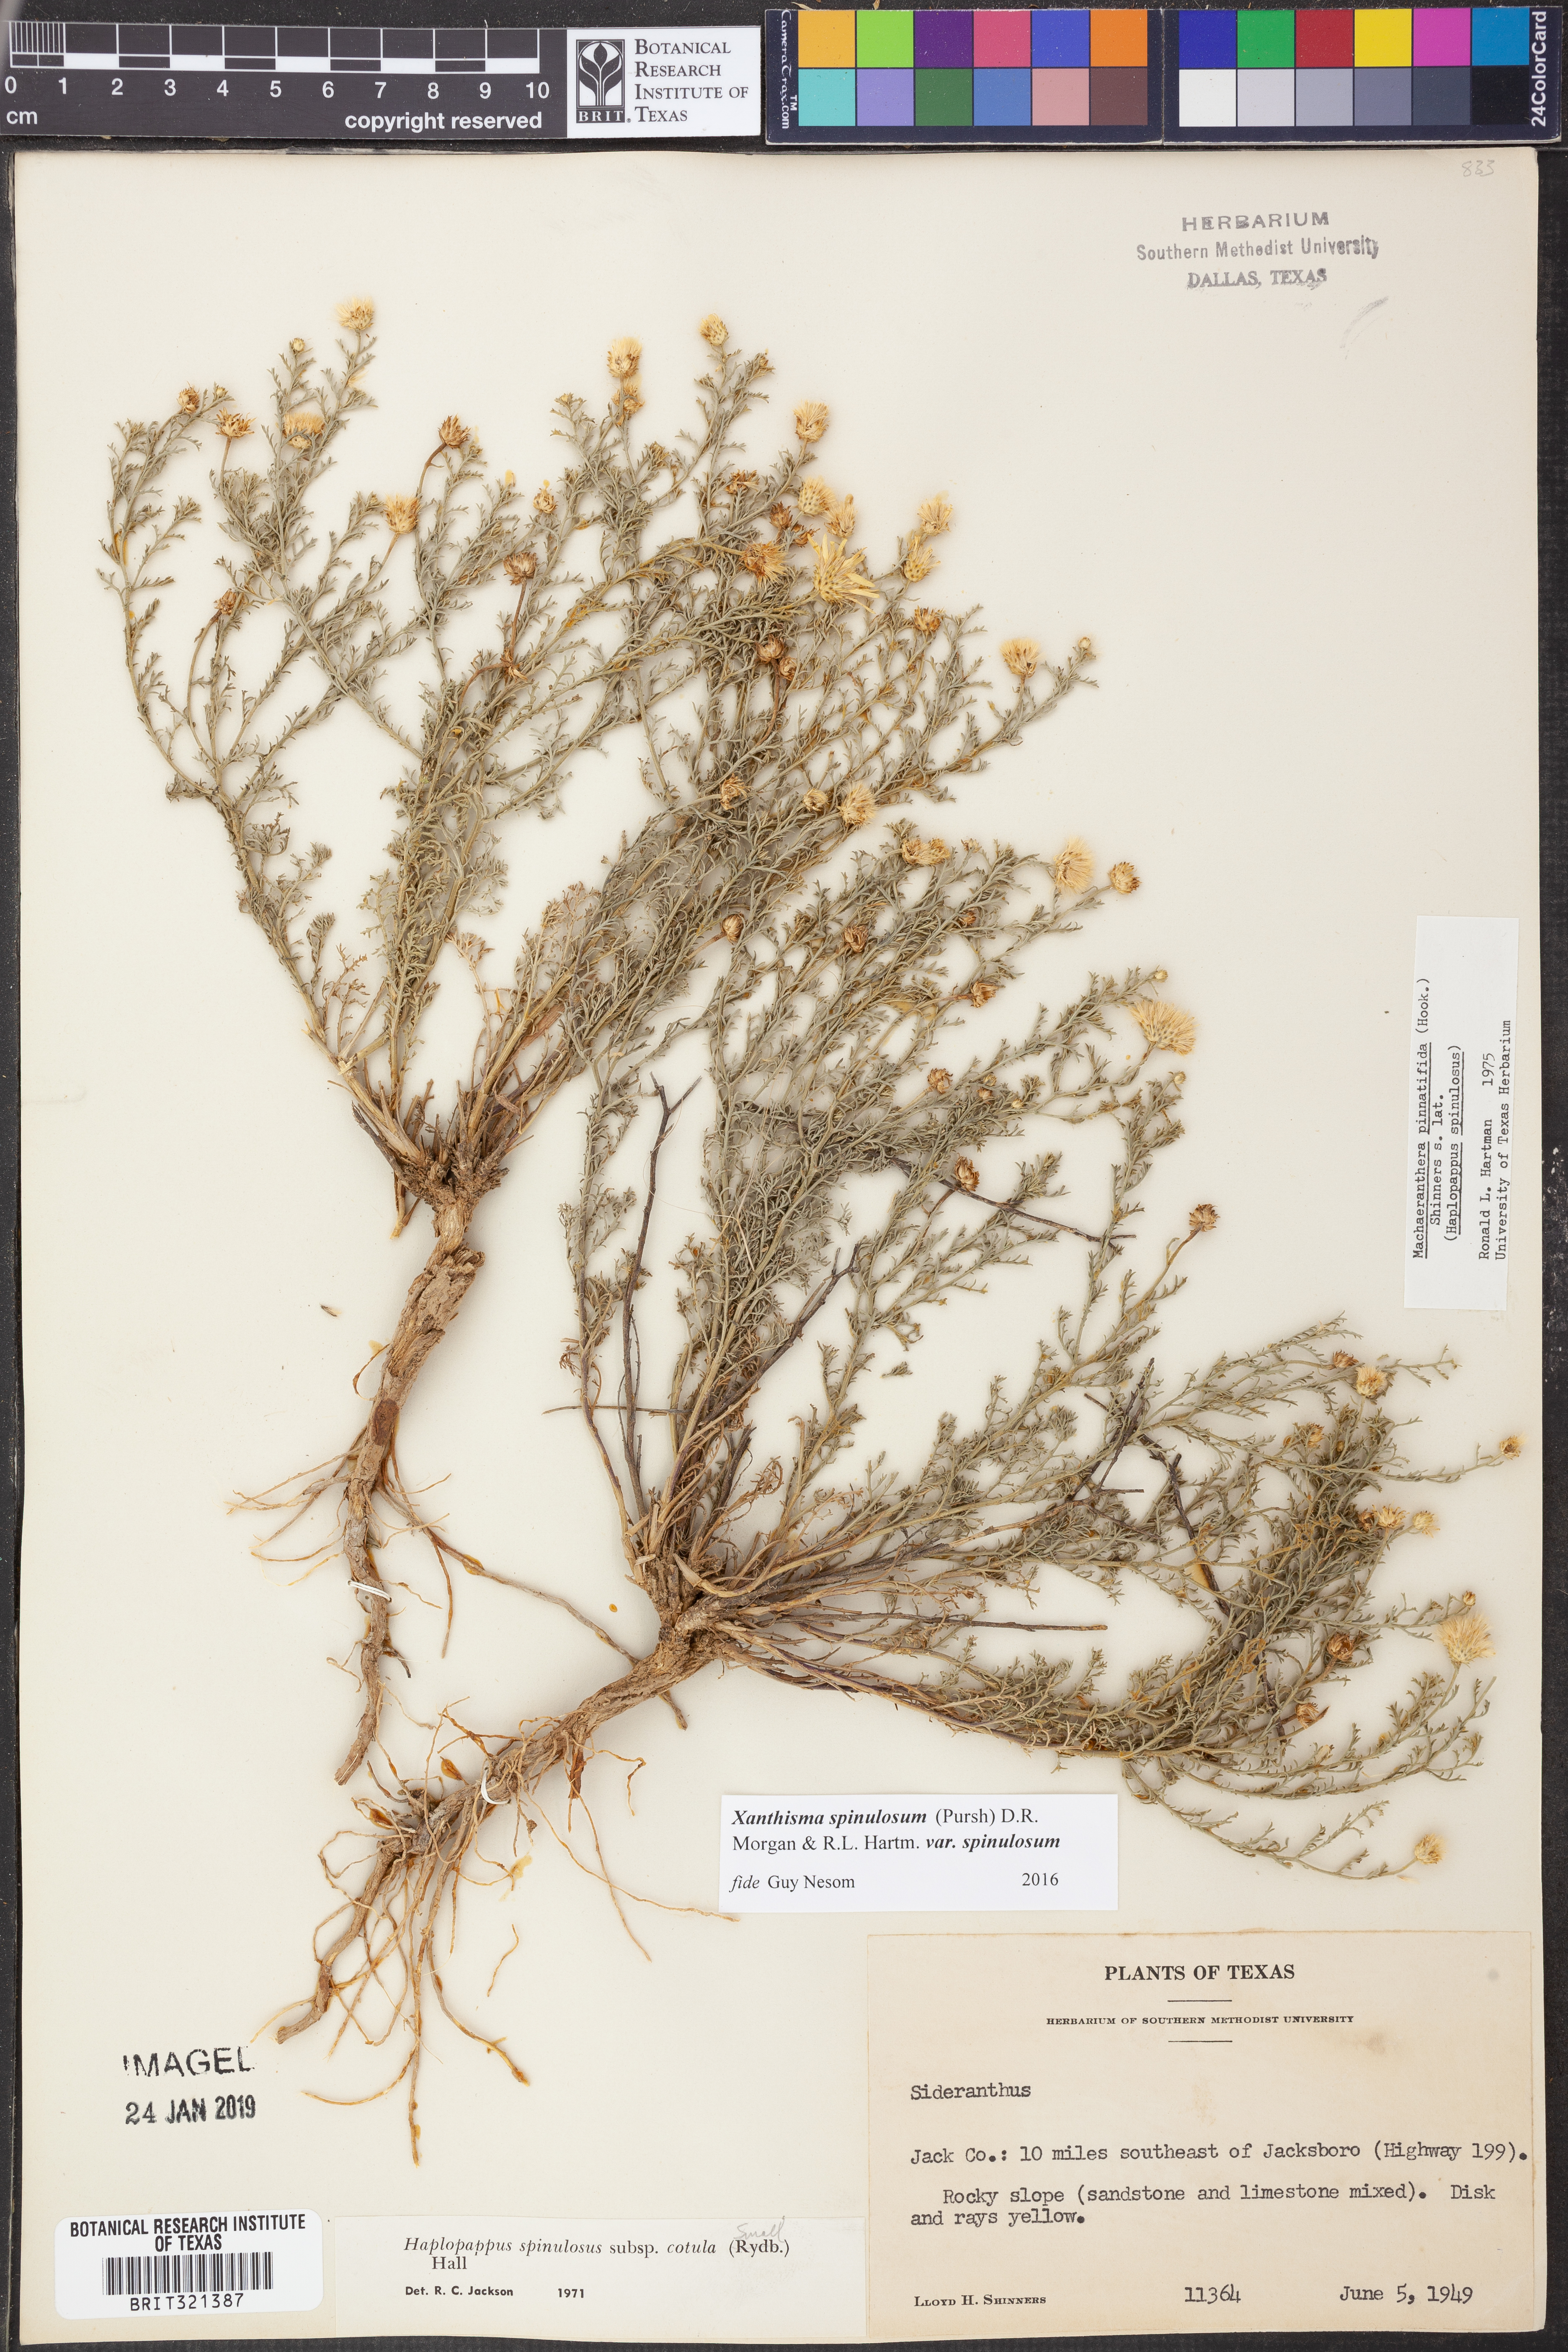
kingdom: Plantae
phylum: Tracheophyta
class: Magnoliopsida
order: Asterales
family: Asteraceae
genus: Xanthisma
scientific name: Xanthisma spinulosum
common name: Spiny goldenweed
